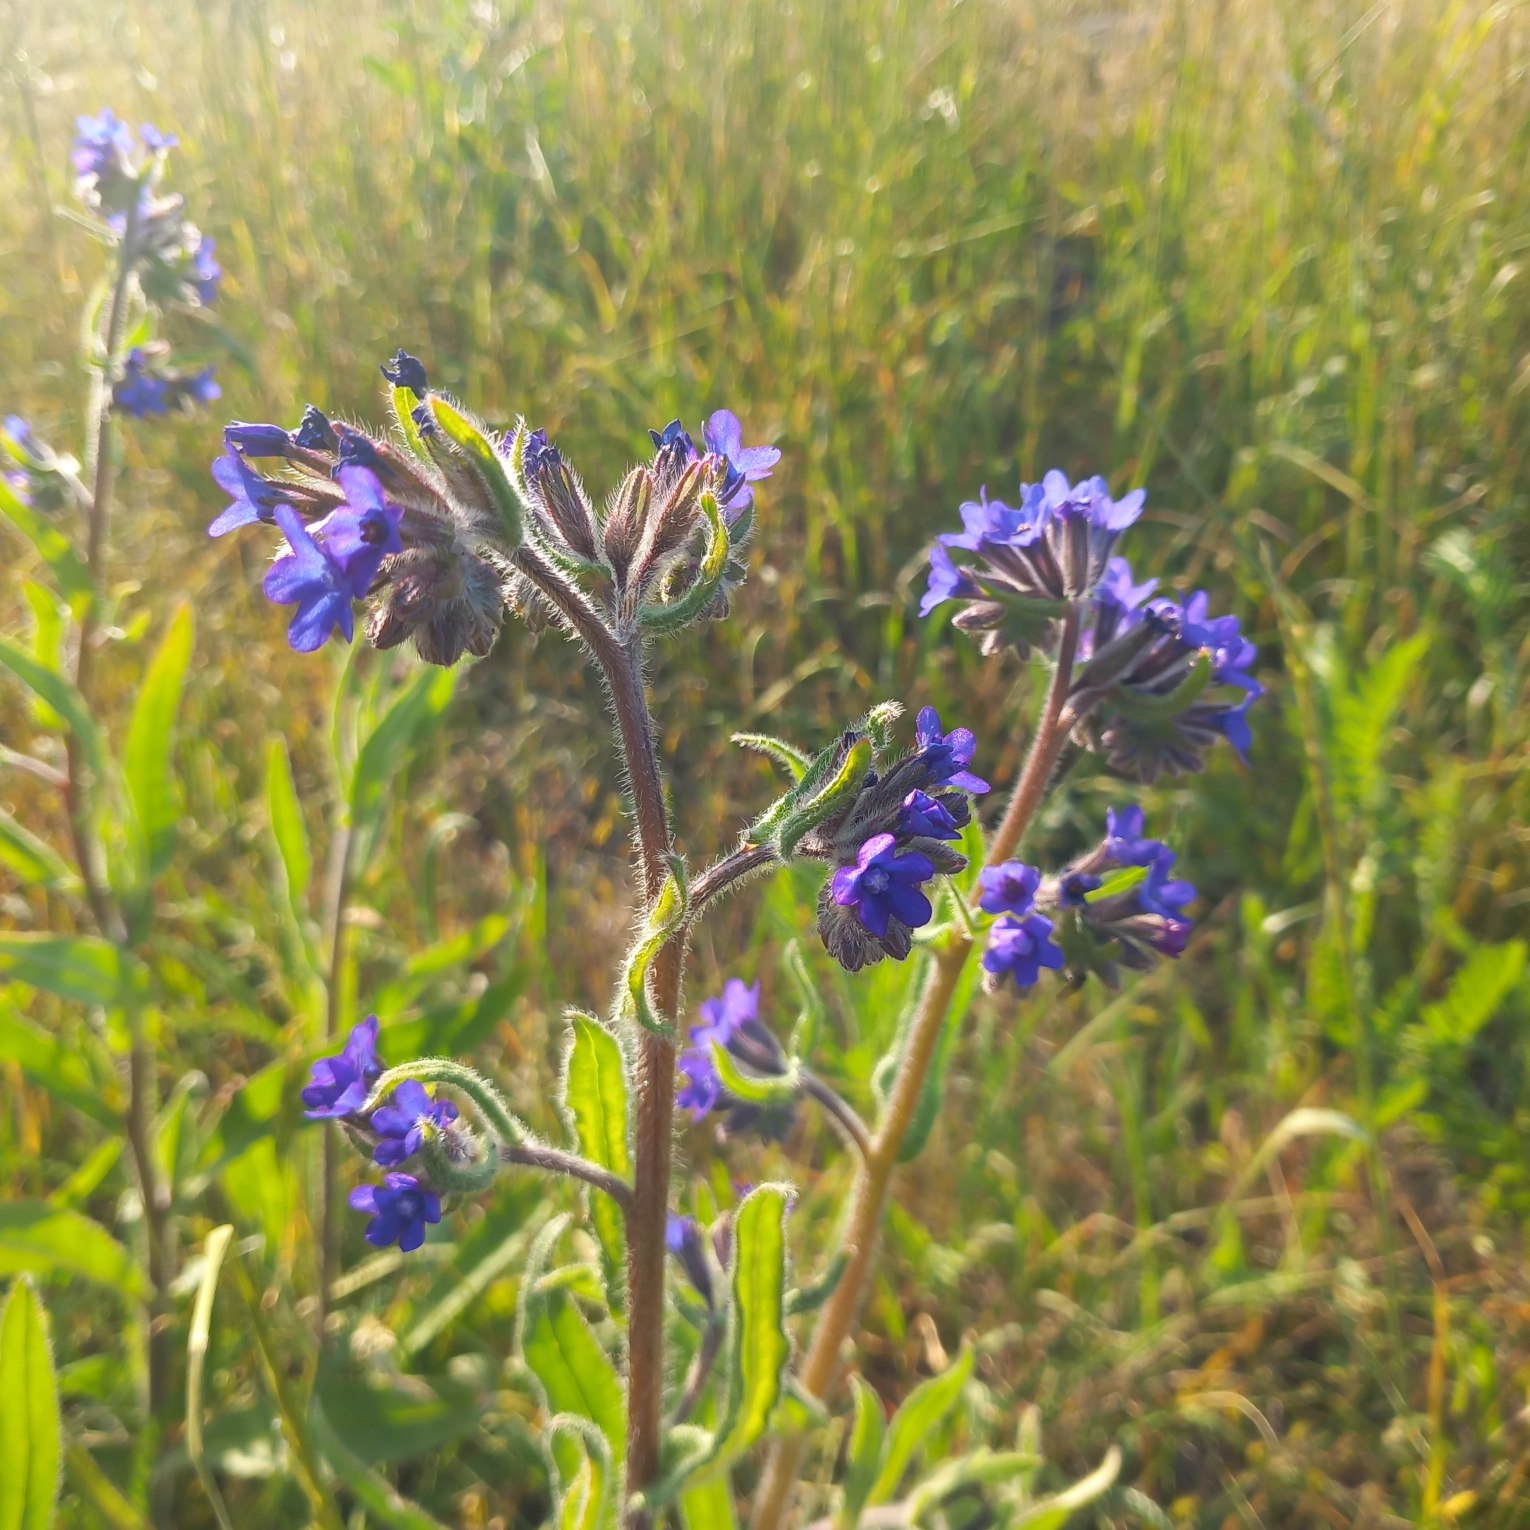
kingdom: Plantae
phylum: Tracheophyta
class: Magnoliopsida
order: Boraginales
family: Boraginaceae
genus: Anchusa
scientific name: Anchusa officinalis
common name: Læge-oksetunge
